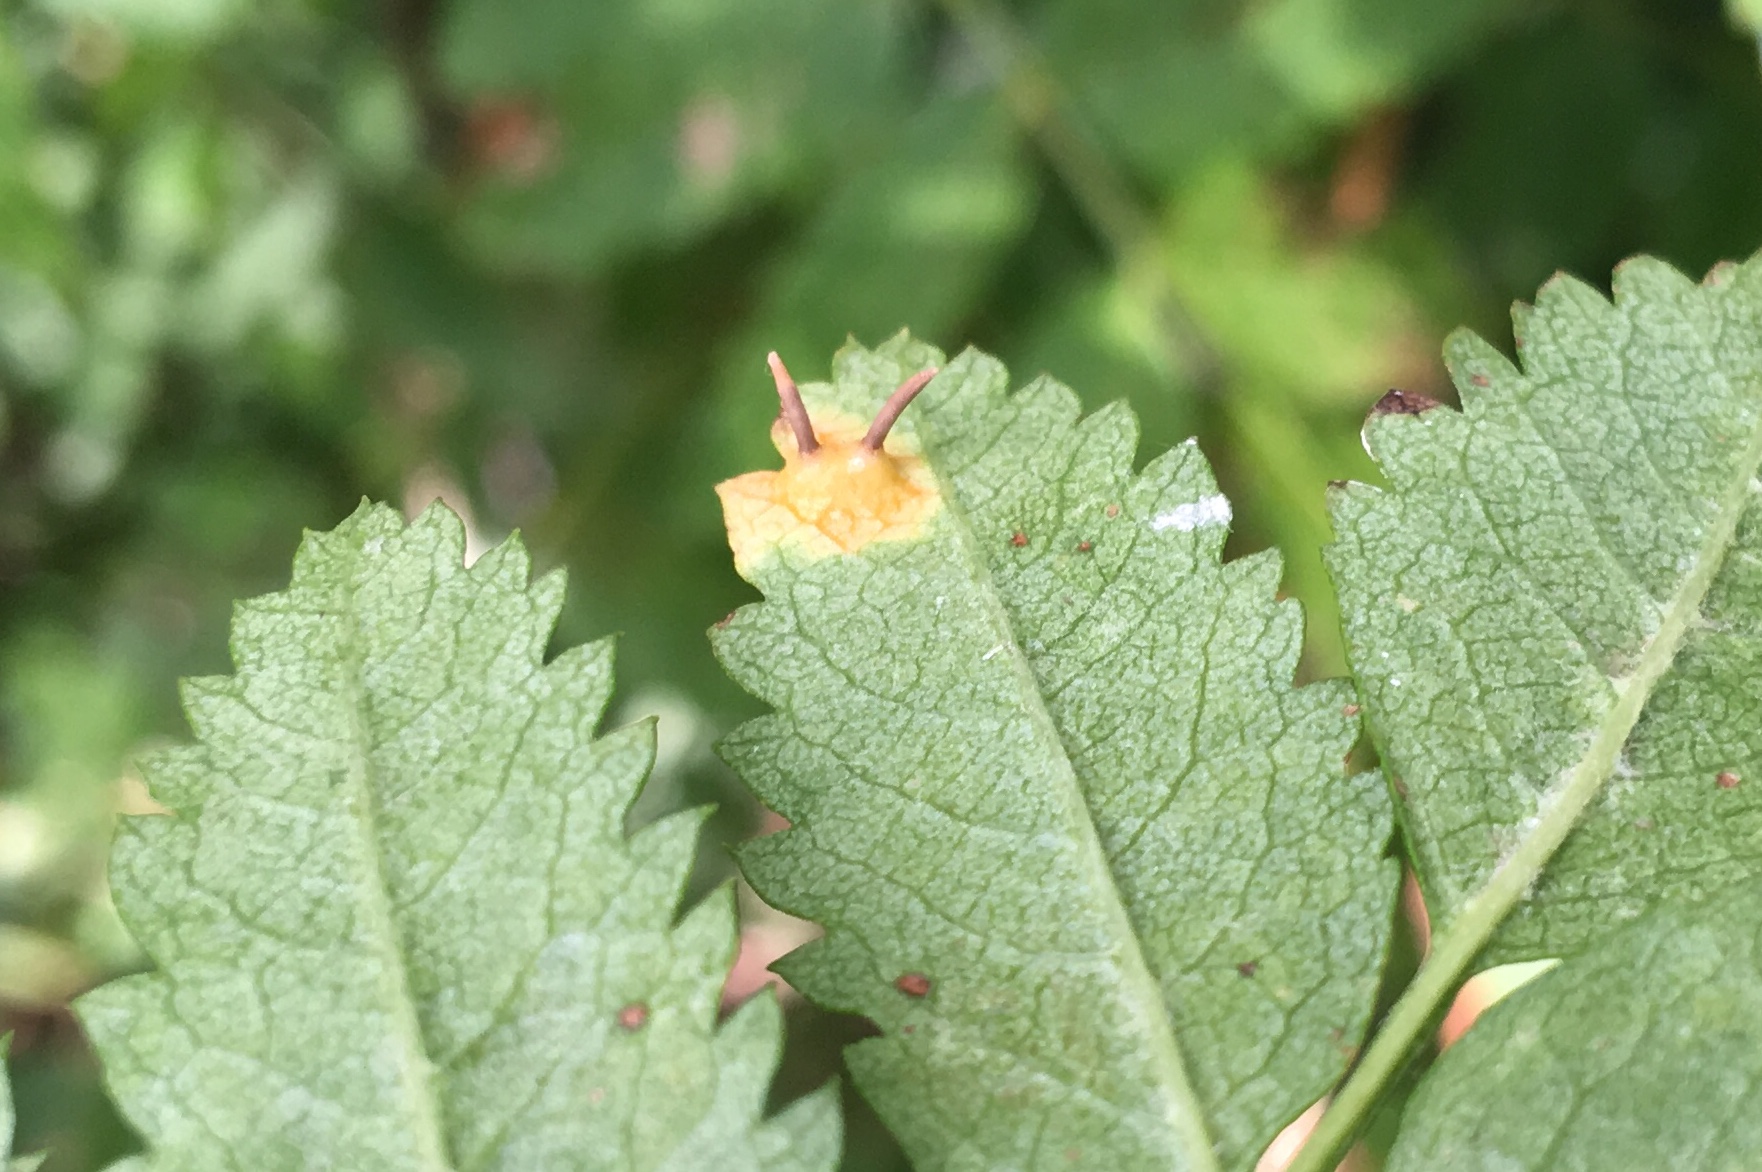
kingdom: Fungi
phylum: Basidiomycota
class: Pucciniomycetes
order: Pucciniales
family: Gymnosporangiaceae
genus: Gymnosporangium
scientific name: Gymnosporangium cornutum
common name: rønnehorn-bævrerust
